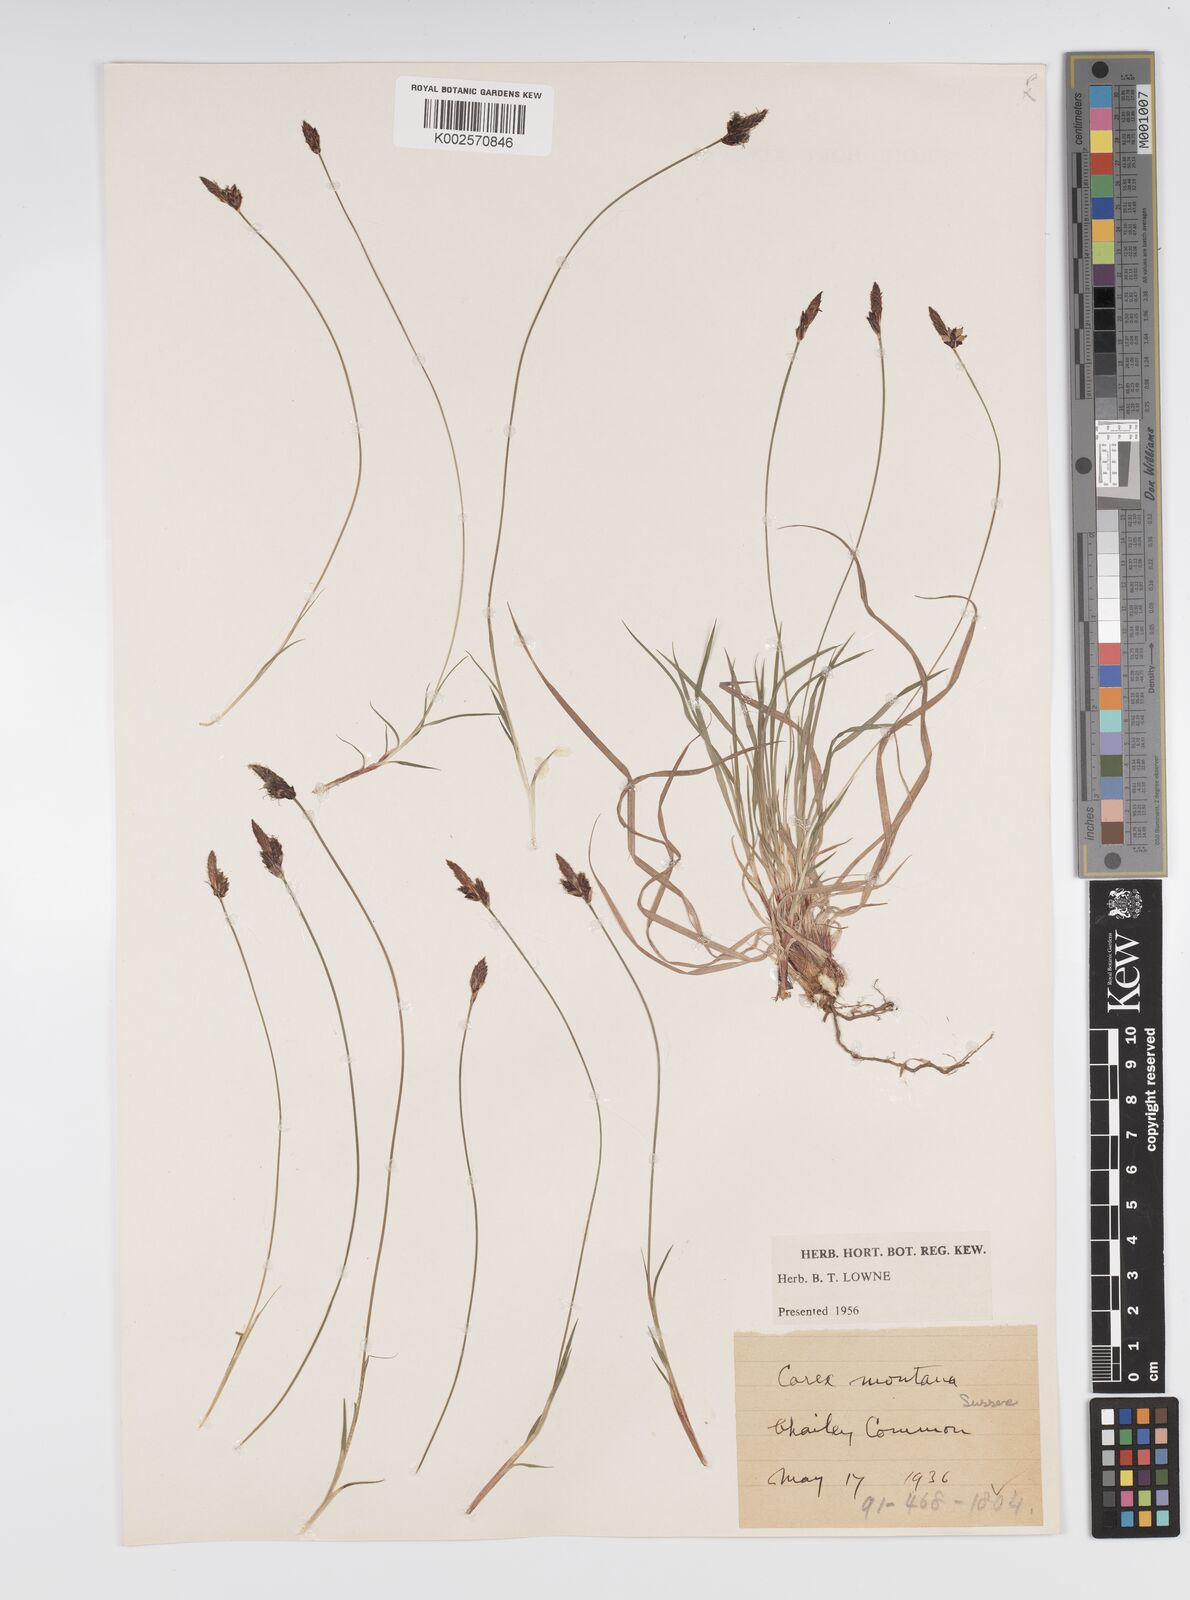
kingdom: Plantae
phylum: Tracheophyta
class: Liliopsida
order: Poales
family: Cyperaceae
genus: Carex
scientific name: Carex montana
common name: Soft-leaved sedge
